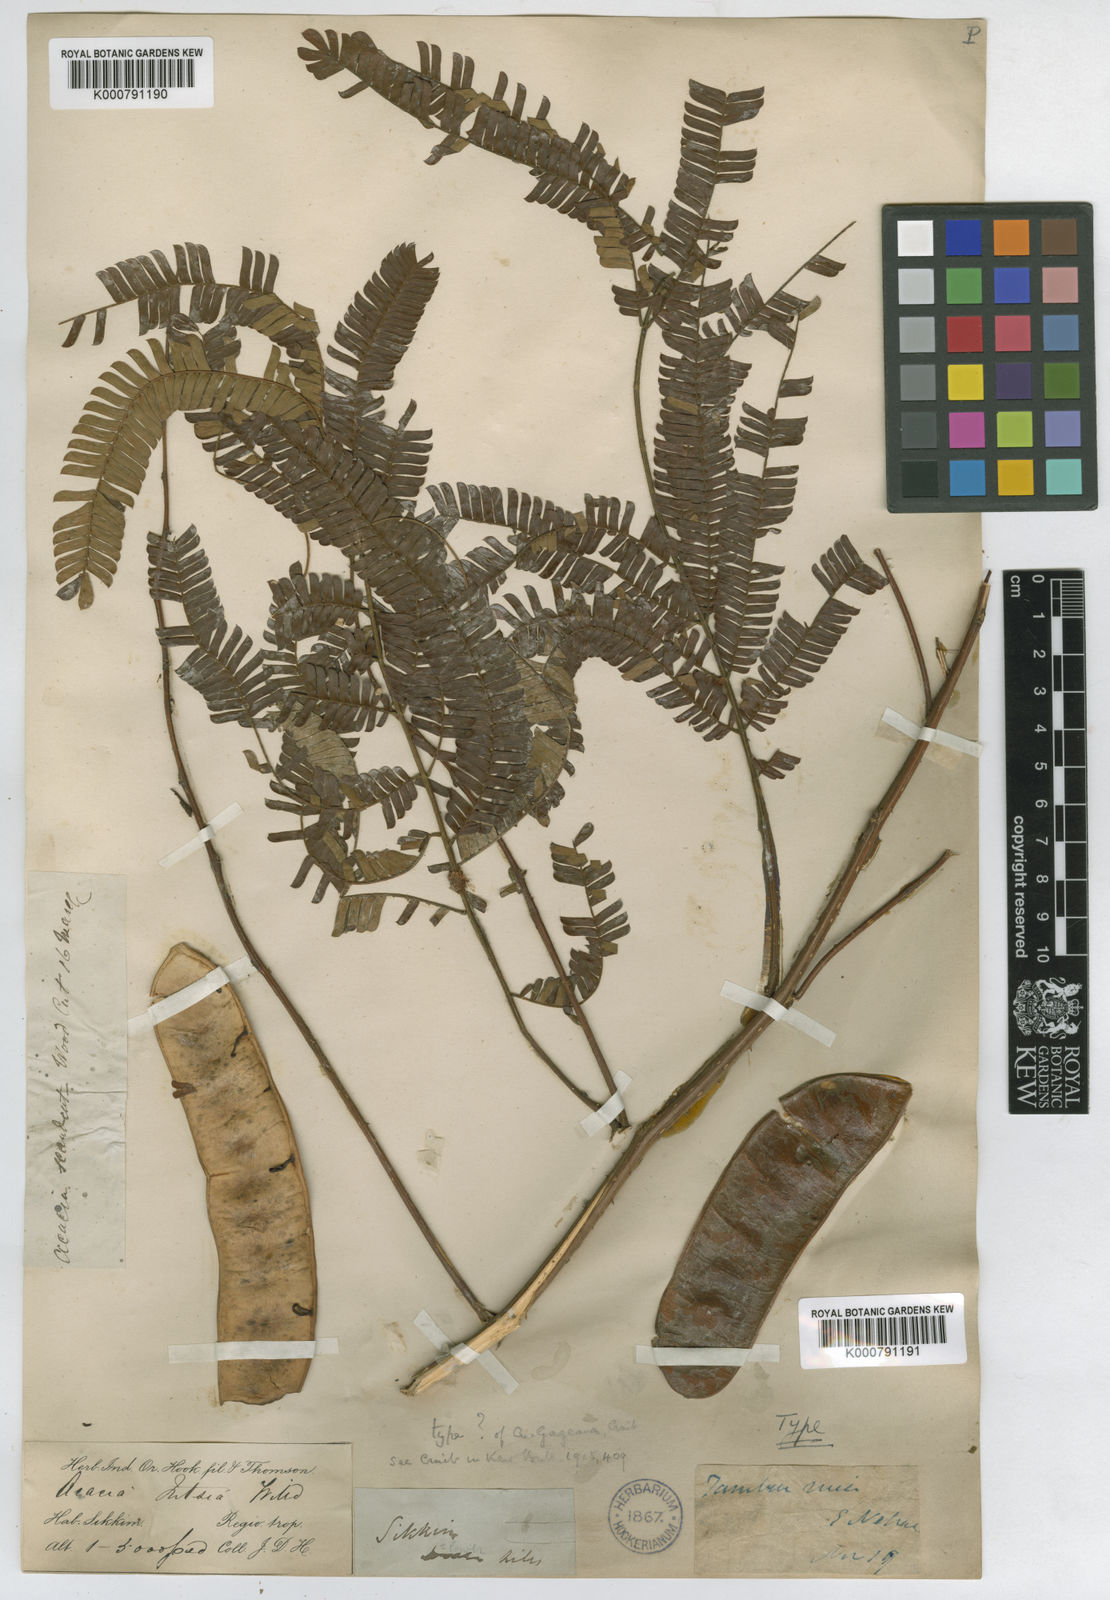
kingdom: Plantae
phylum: Tracheophyta
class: Magnoliopsida
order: Fabales
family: Fabaceae
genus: Senegalia
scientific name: Senegalia gageana
